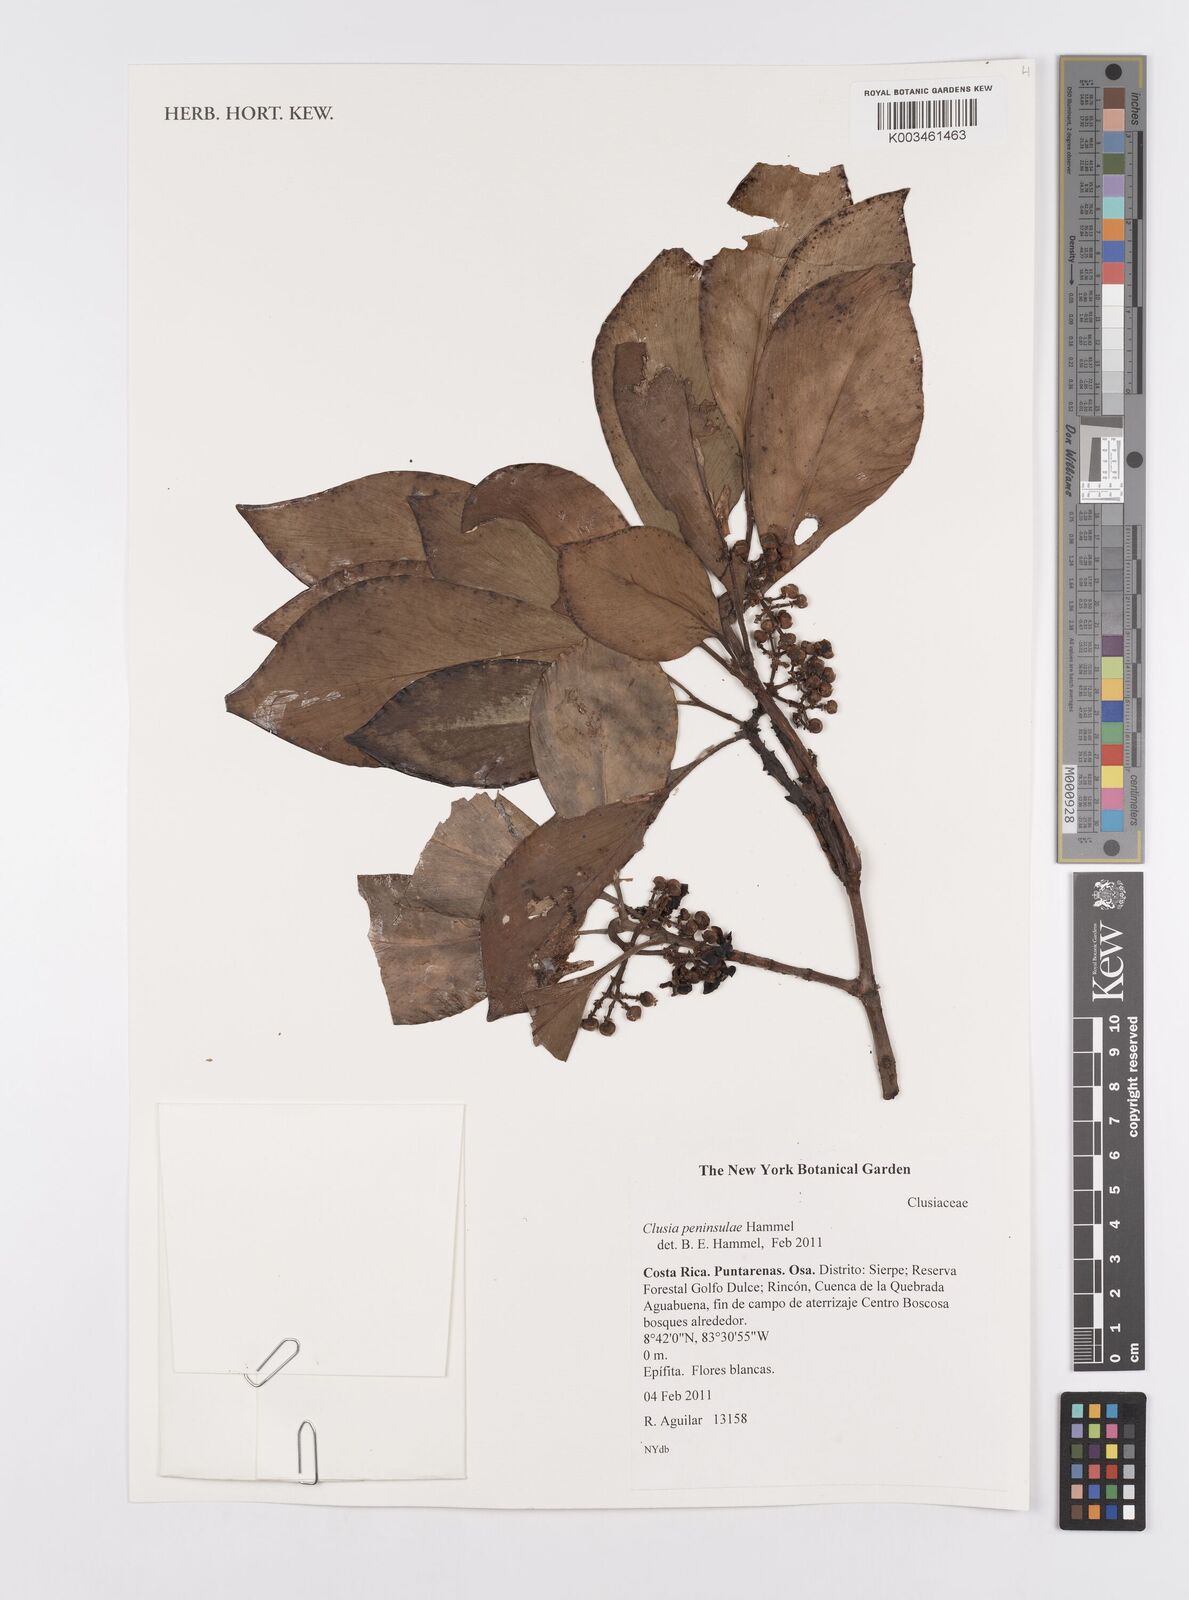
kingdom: Plantae
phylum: Tracheophyta
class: Magnoliopsida
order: Malpighiales
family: Clusiaceae
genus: Clusia
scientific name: Clusia peninsulae
